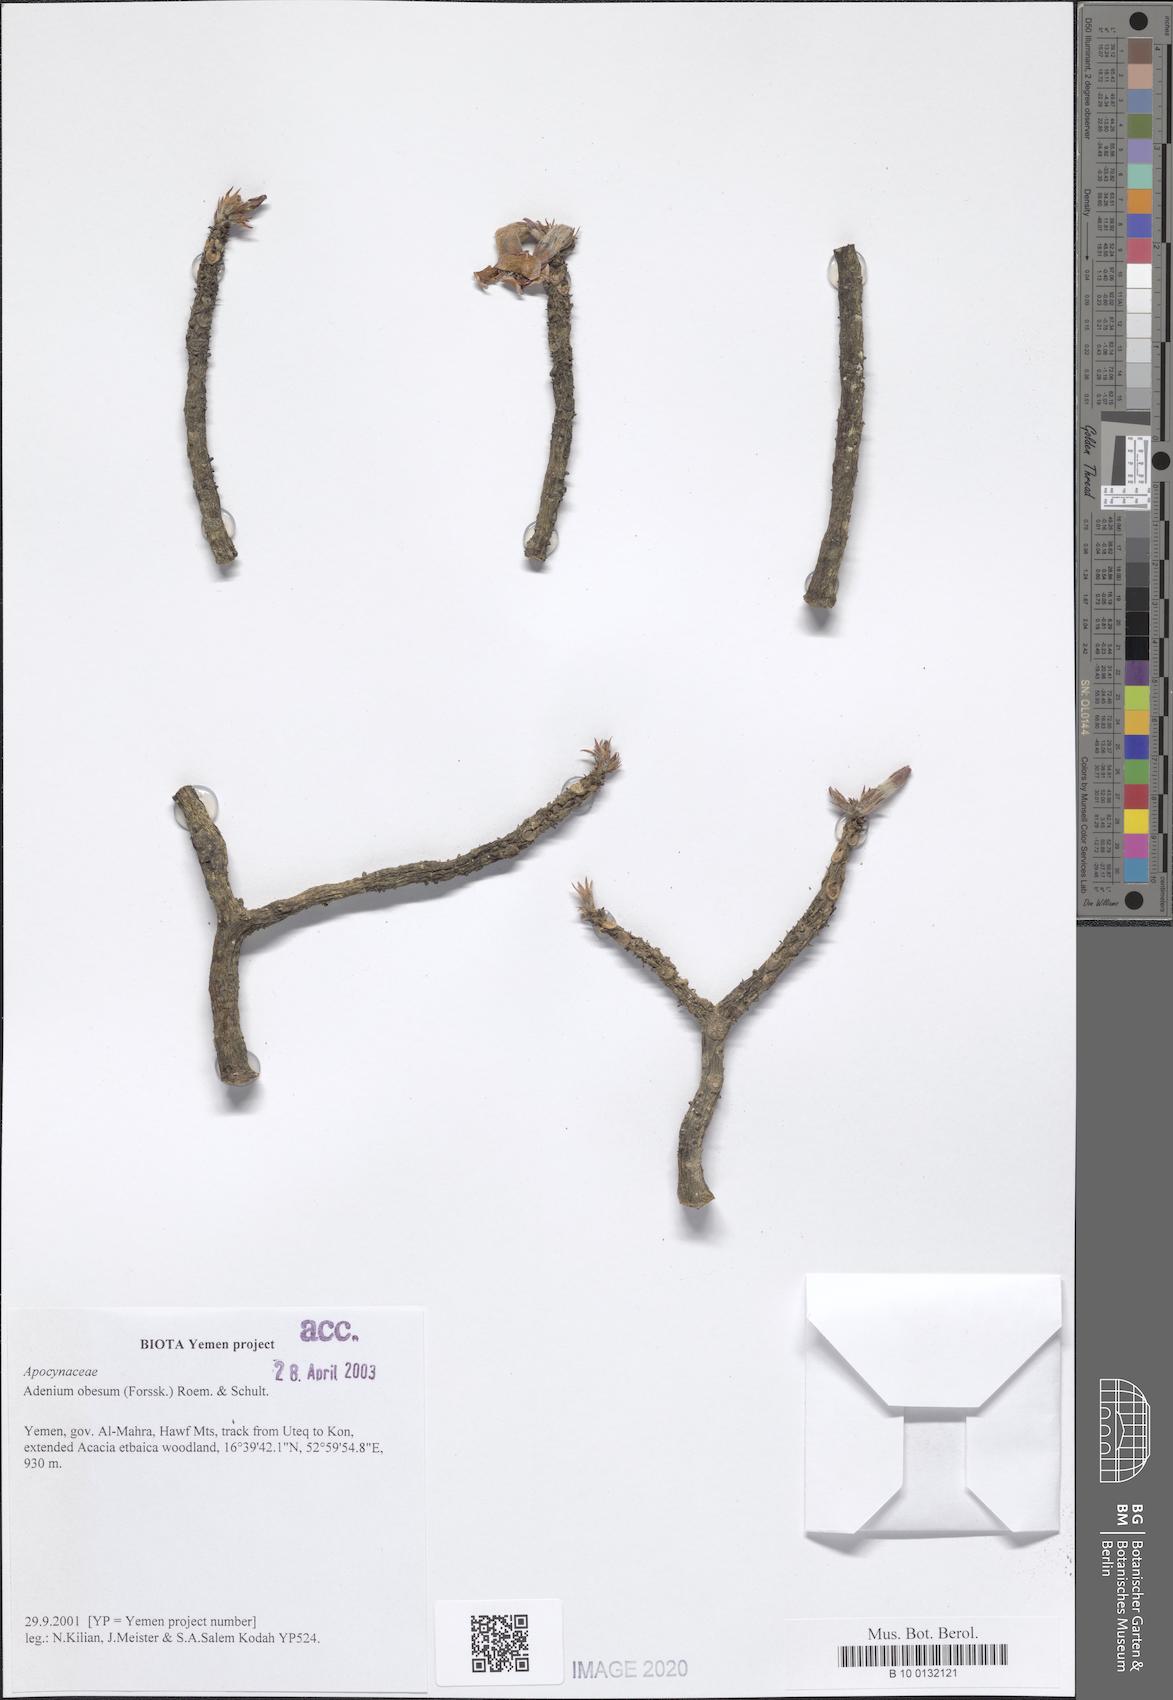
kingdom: Plantae
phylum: Tracheophyta
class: Magnoliopsida
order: Gentianales
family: Apocynaceae
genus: Adenium
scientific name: Adenium obesum
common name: Desert-rose
